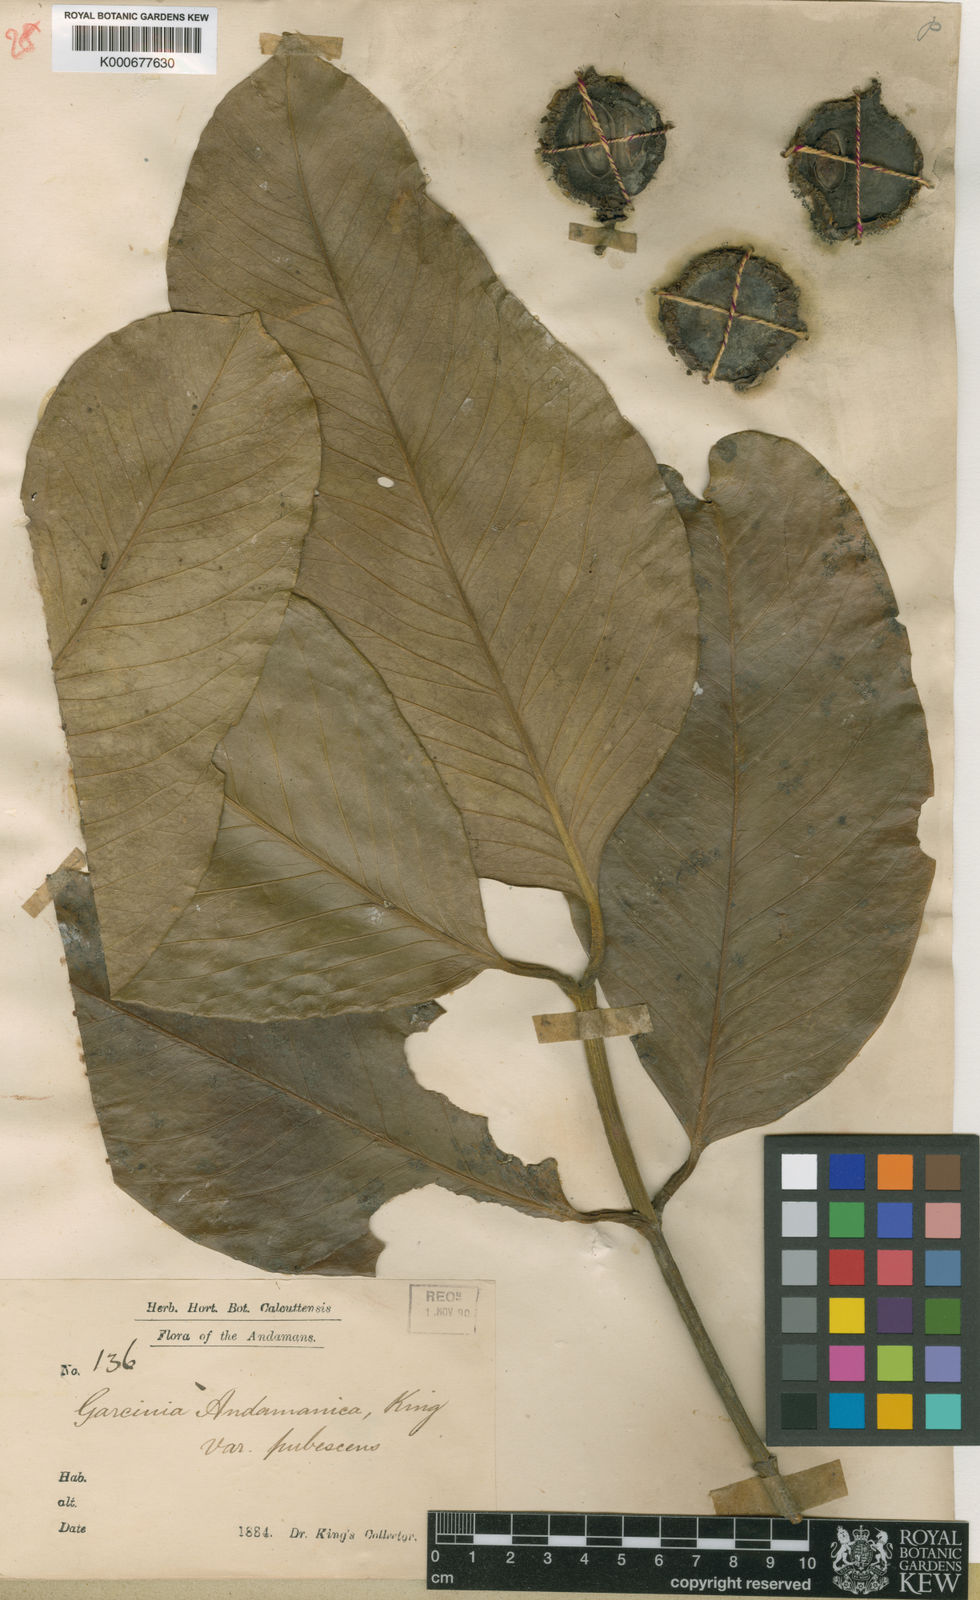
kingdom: Plantae
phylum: Tracheophyta
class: Magnoliopsida
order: Malpighiales
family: Clusiaceae
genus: Garcinia
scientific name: Garcinia andamanica
